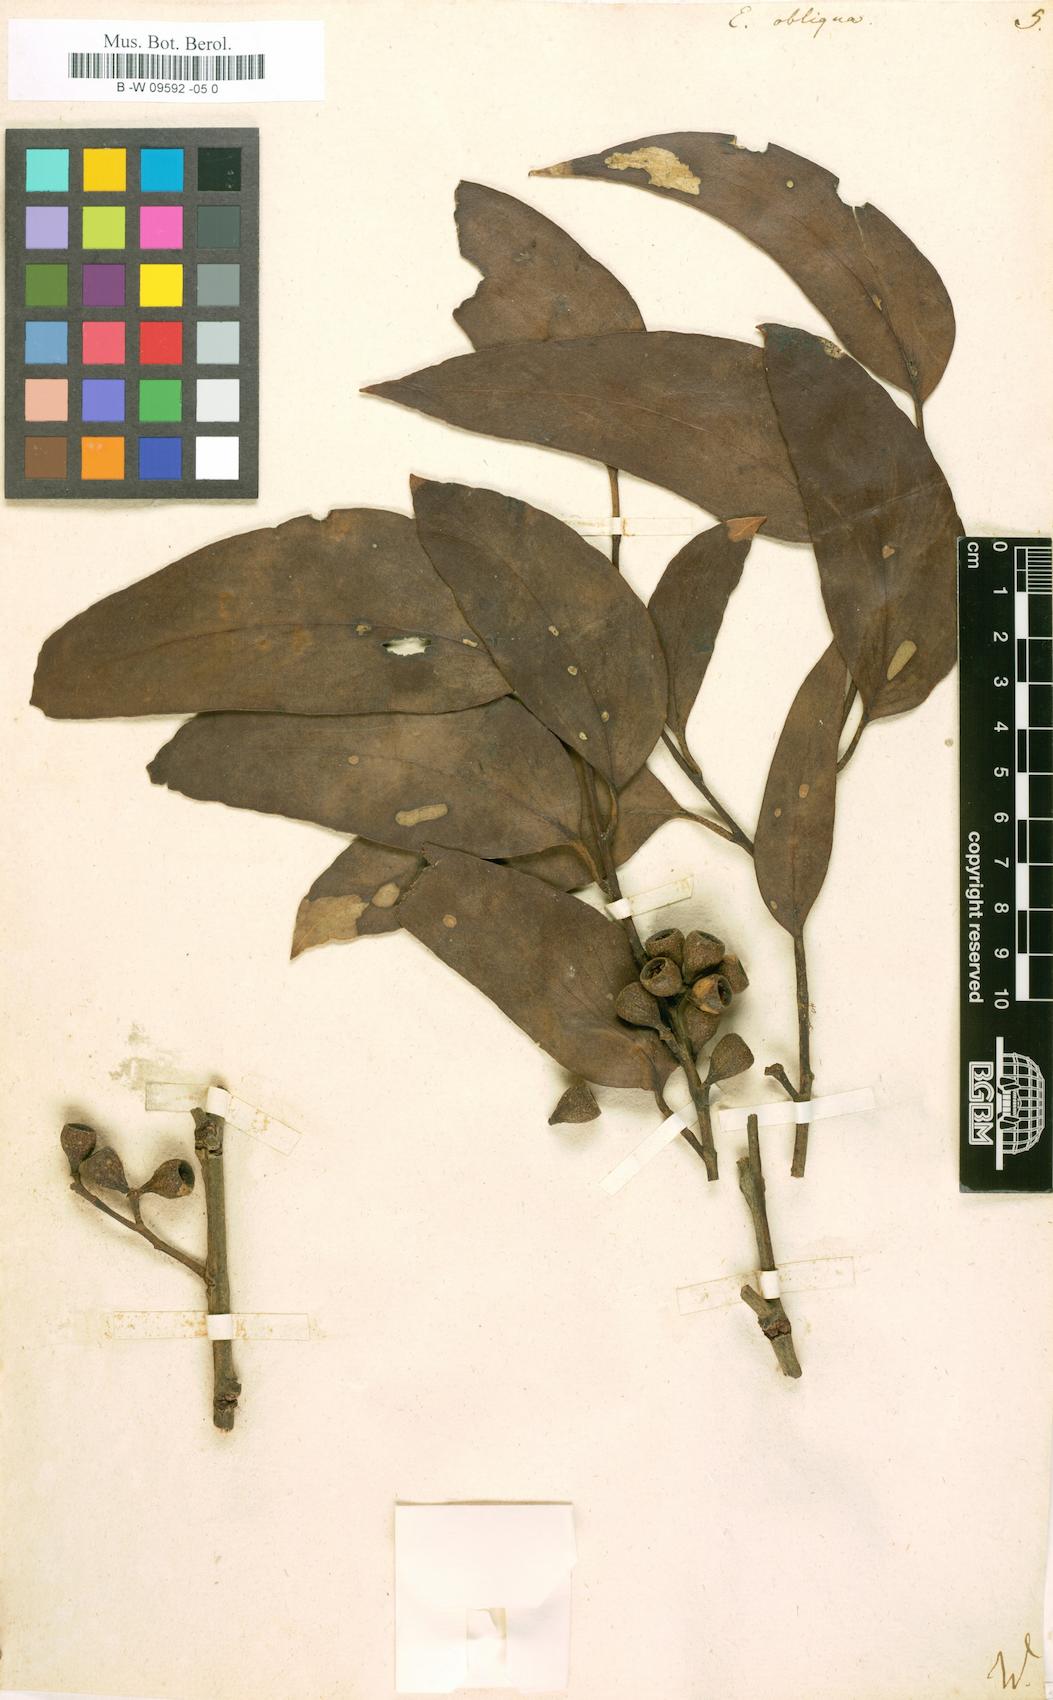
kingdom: Plantae
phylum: Tracheophyta
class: Magnoliopsida
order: Myrtales
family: Myrtaceae
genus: Eucalyptus
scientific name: Eucalyptus obliqua
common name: Messmate stringybark
